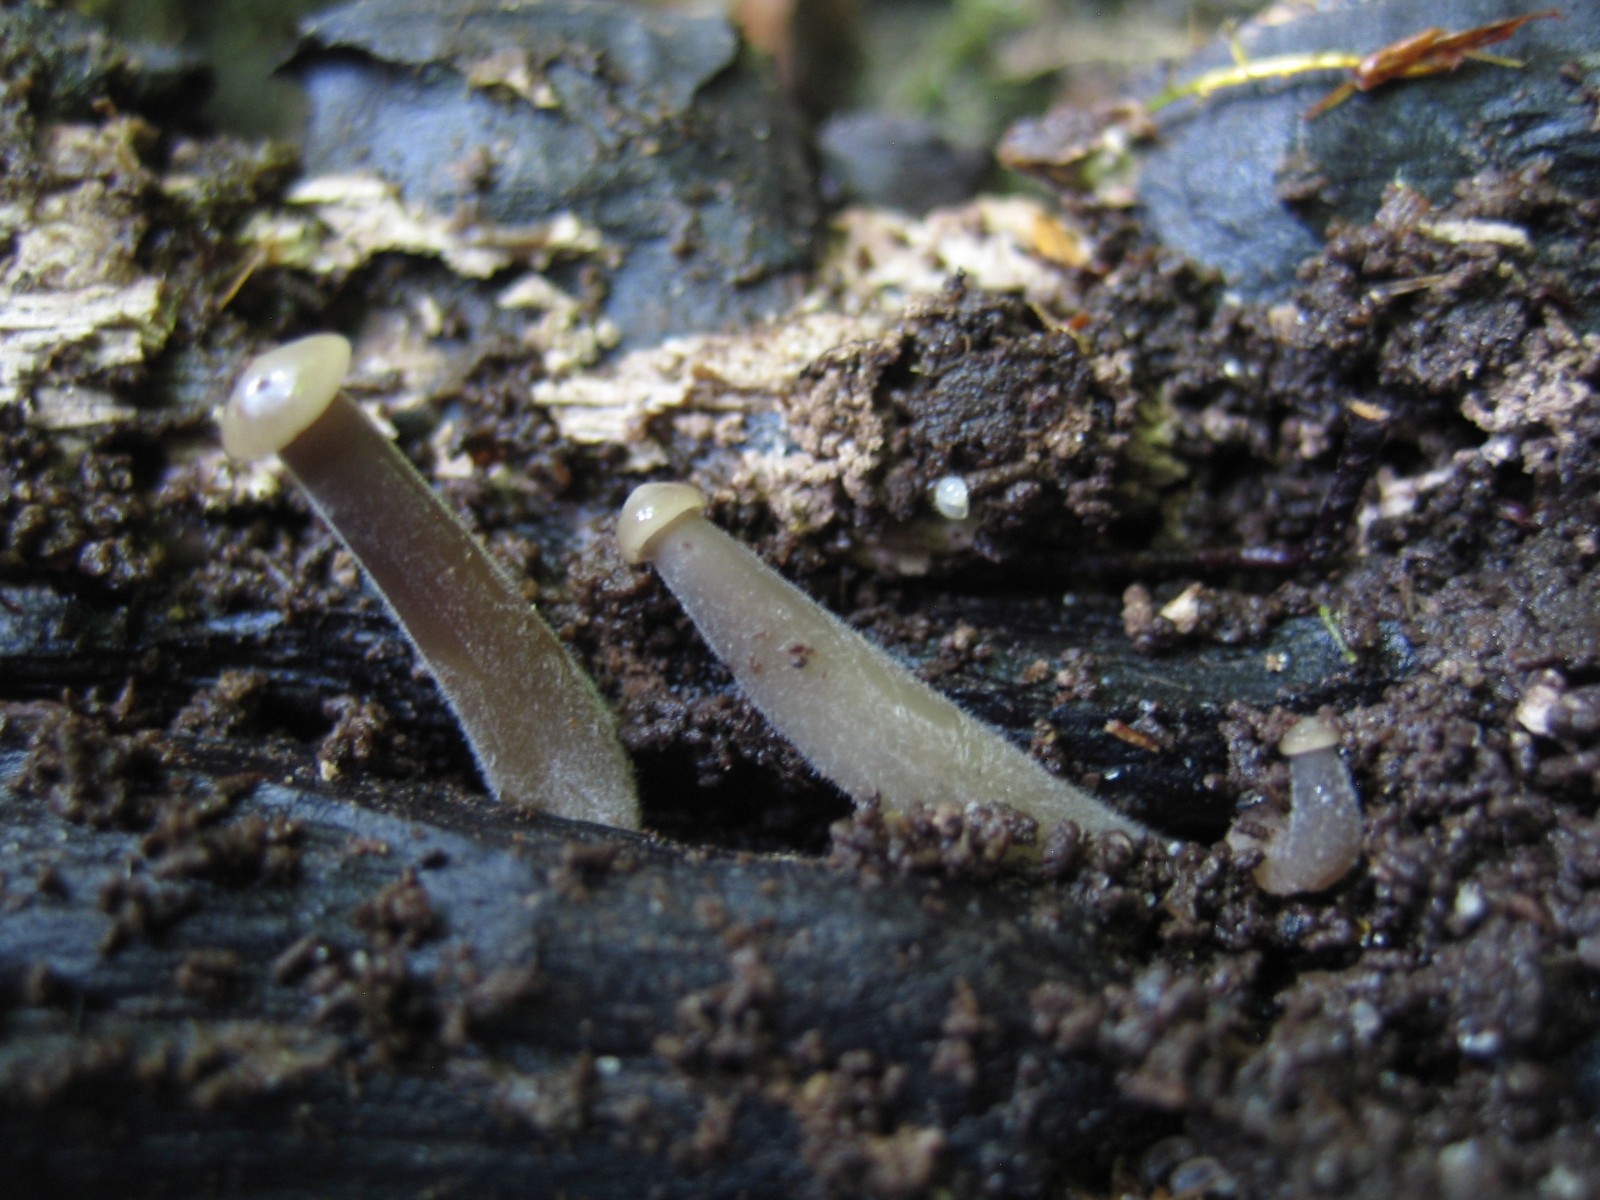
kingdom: Fungi
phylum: Basidiomycota
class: Agaricomycetes
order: Agaricales
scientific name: Agaricales
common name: champignonordenen
